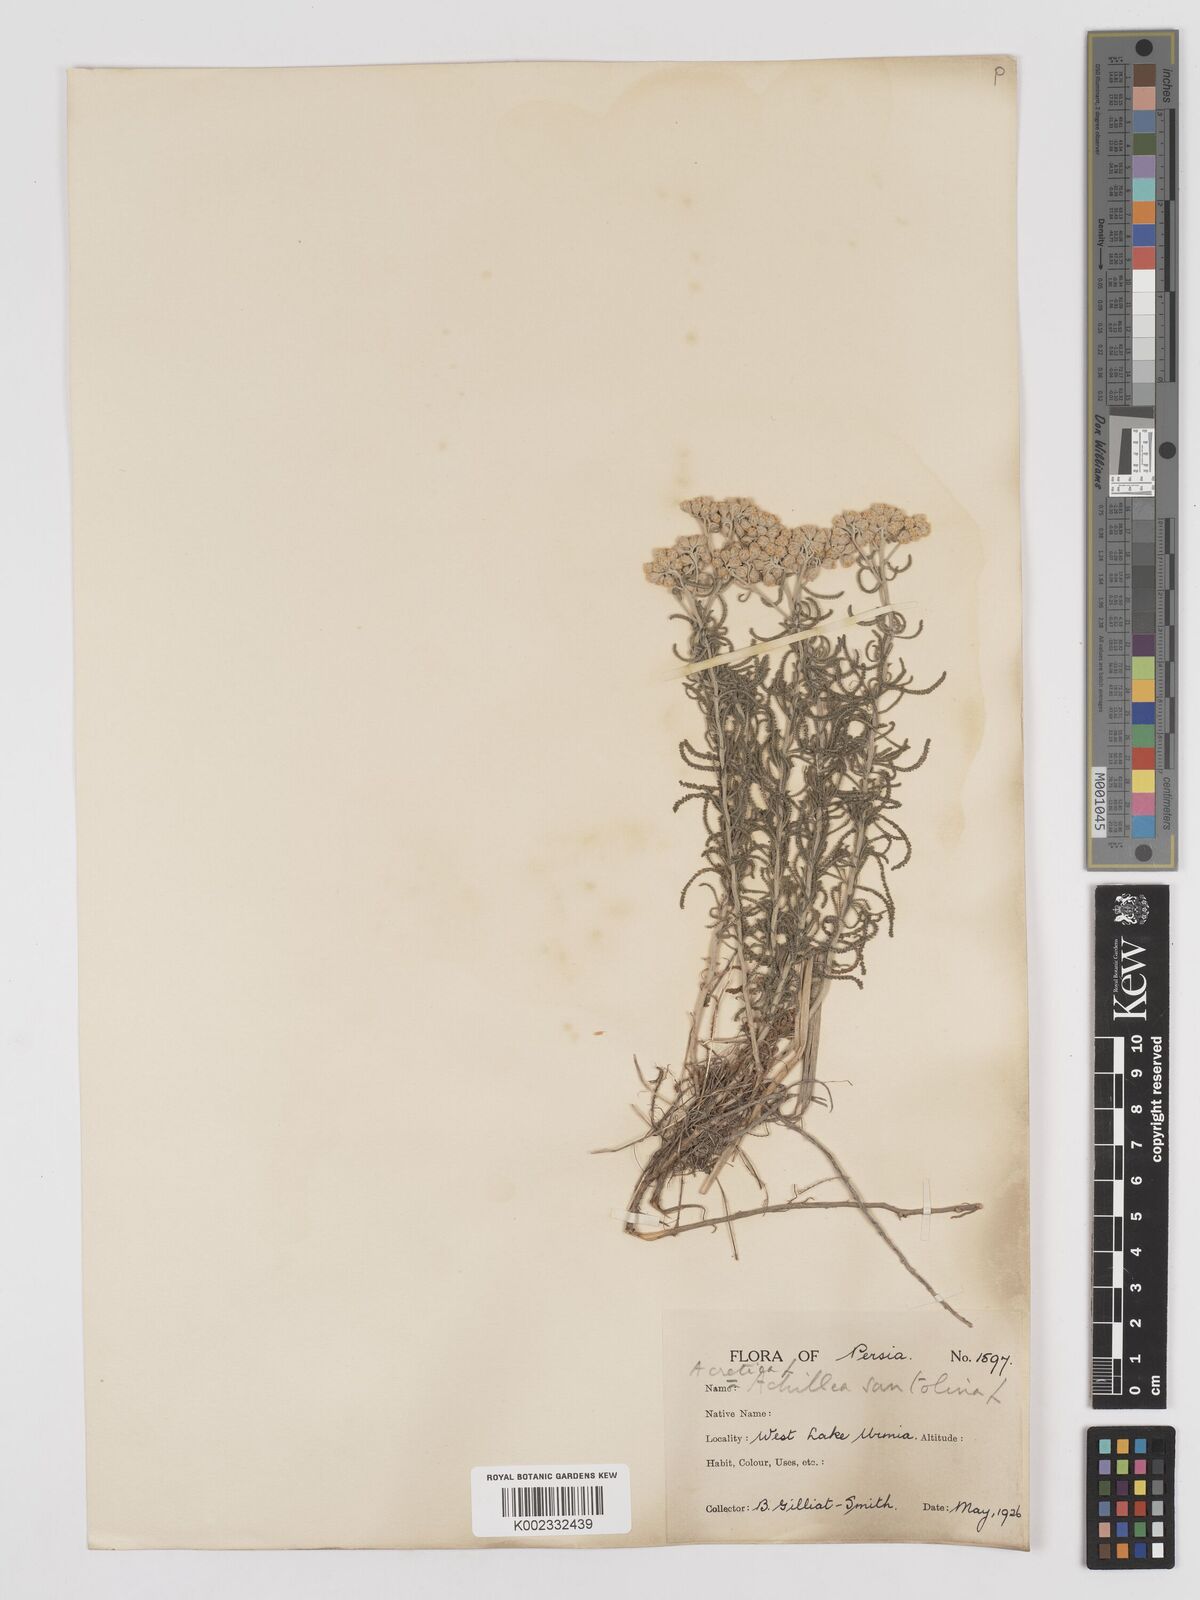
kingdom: Plantae
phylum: Tracheophyta
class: Magnoliopsida
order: Asterales
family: Asteraceae
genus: Achillea
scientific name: Achillea tenuifolia
